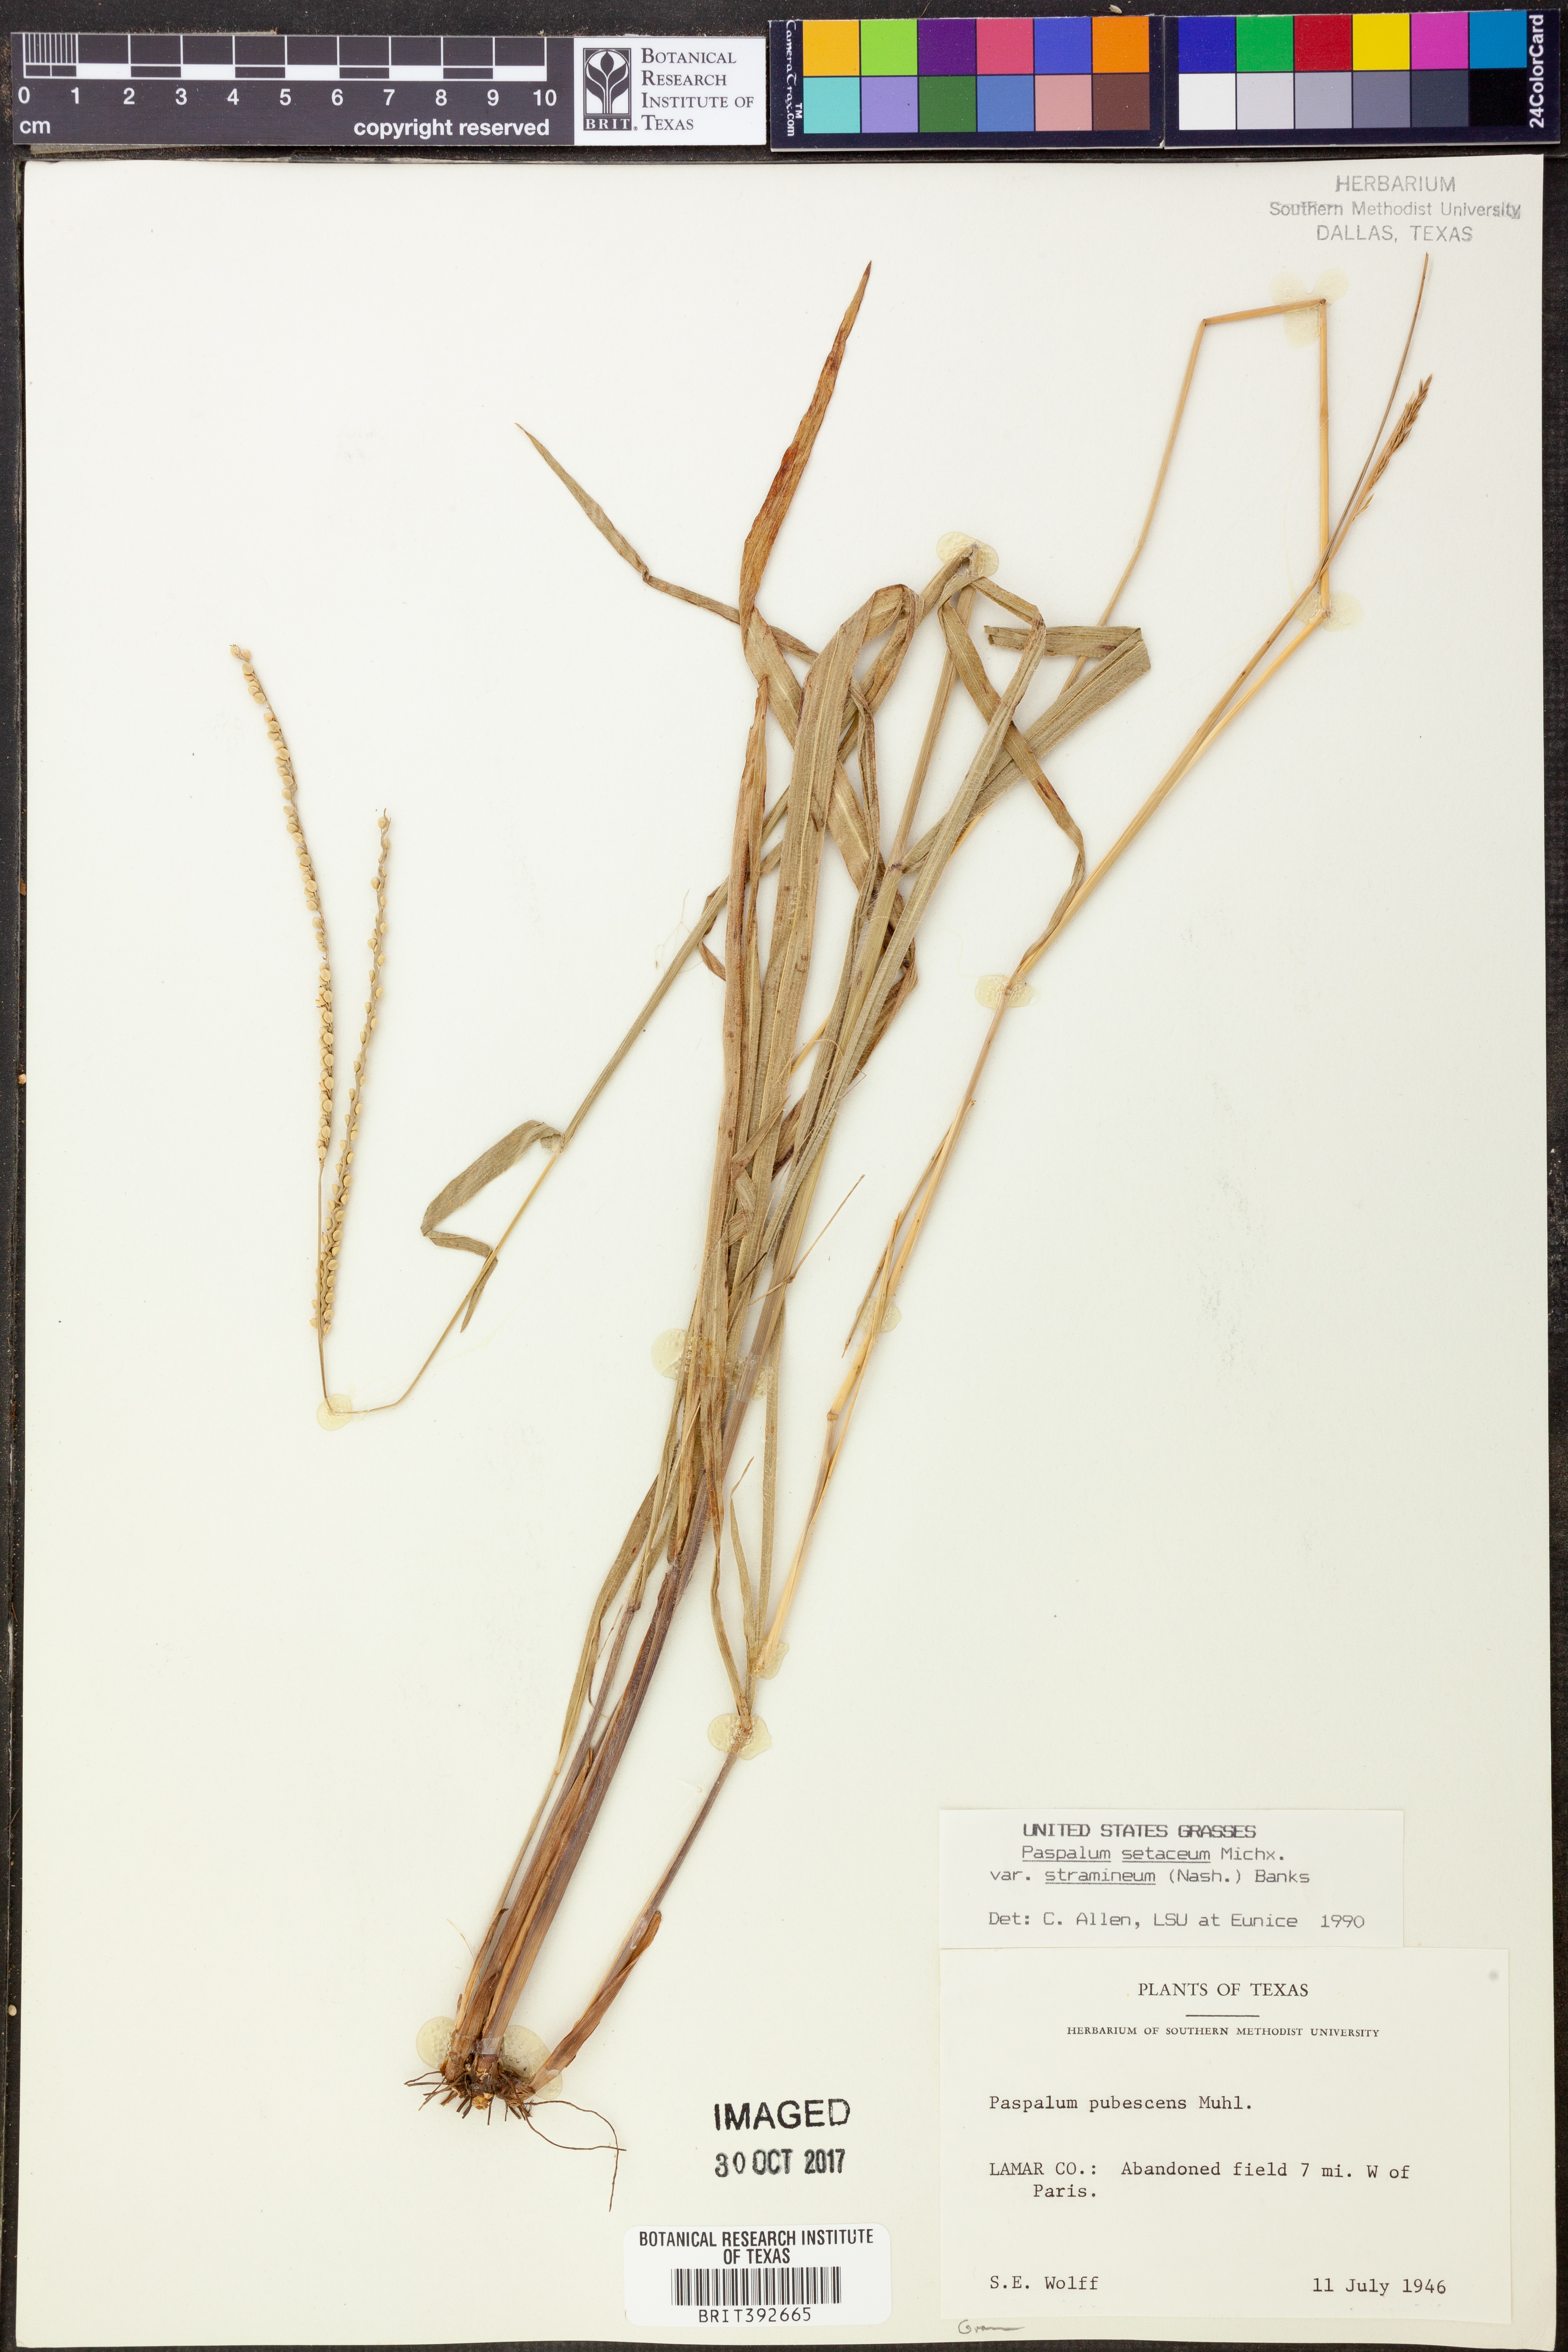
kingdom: Plantae
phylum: Tracheophyta
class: Liliopsida
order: Poales
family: Poaceae
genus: Paspalum
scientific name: Paspalum setaceum
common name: Slender paspalum
